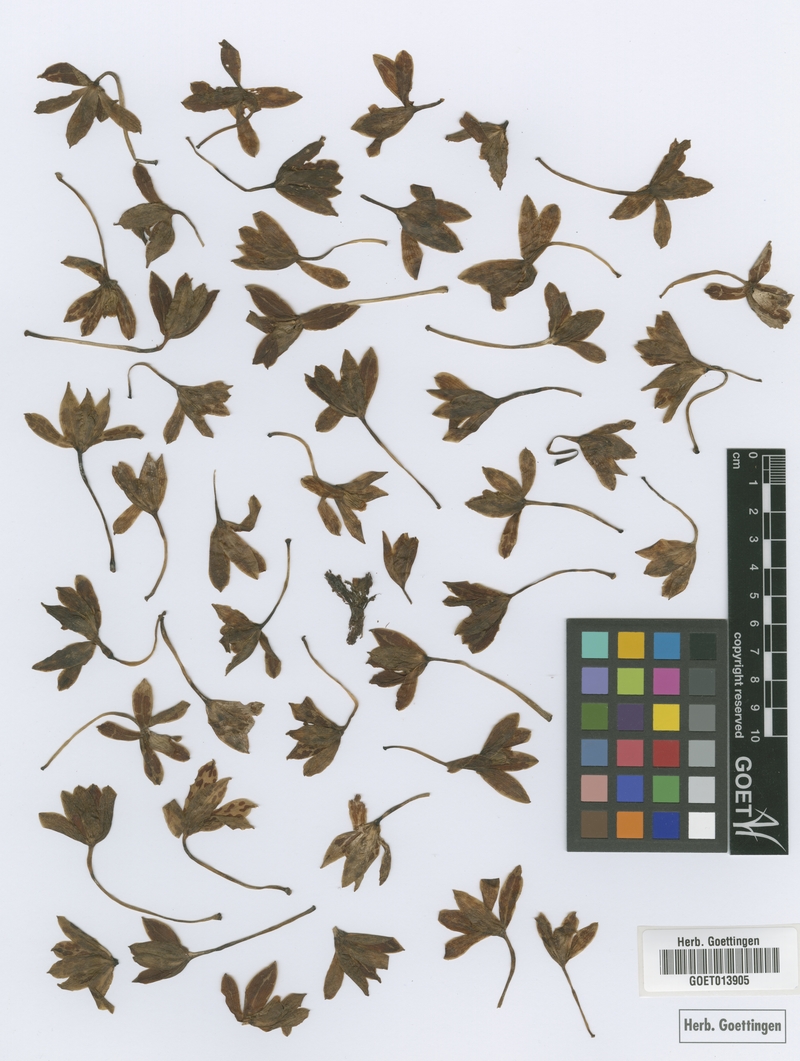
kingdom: Plantae
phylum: Tracheophyta
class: Liliopsida
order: Asparagales
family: Orchidaceae
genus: Grammatophyllum
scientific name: Grammatophyllum multiflorum
